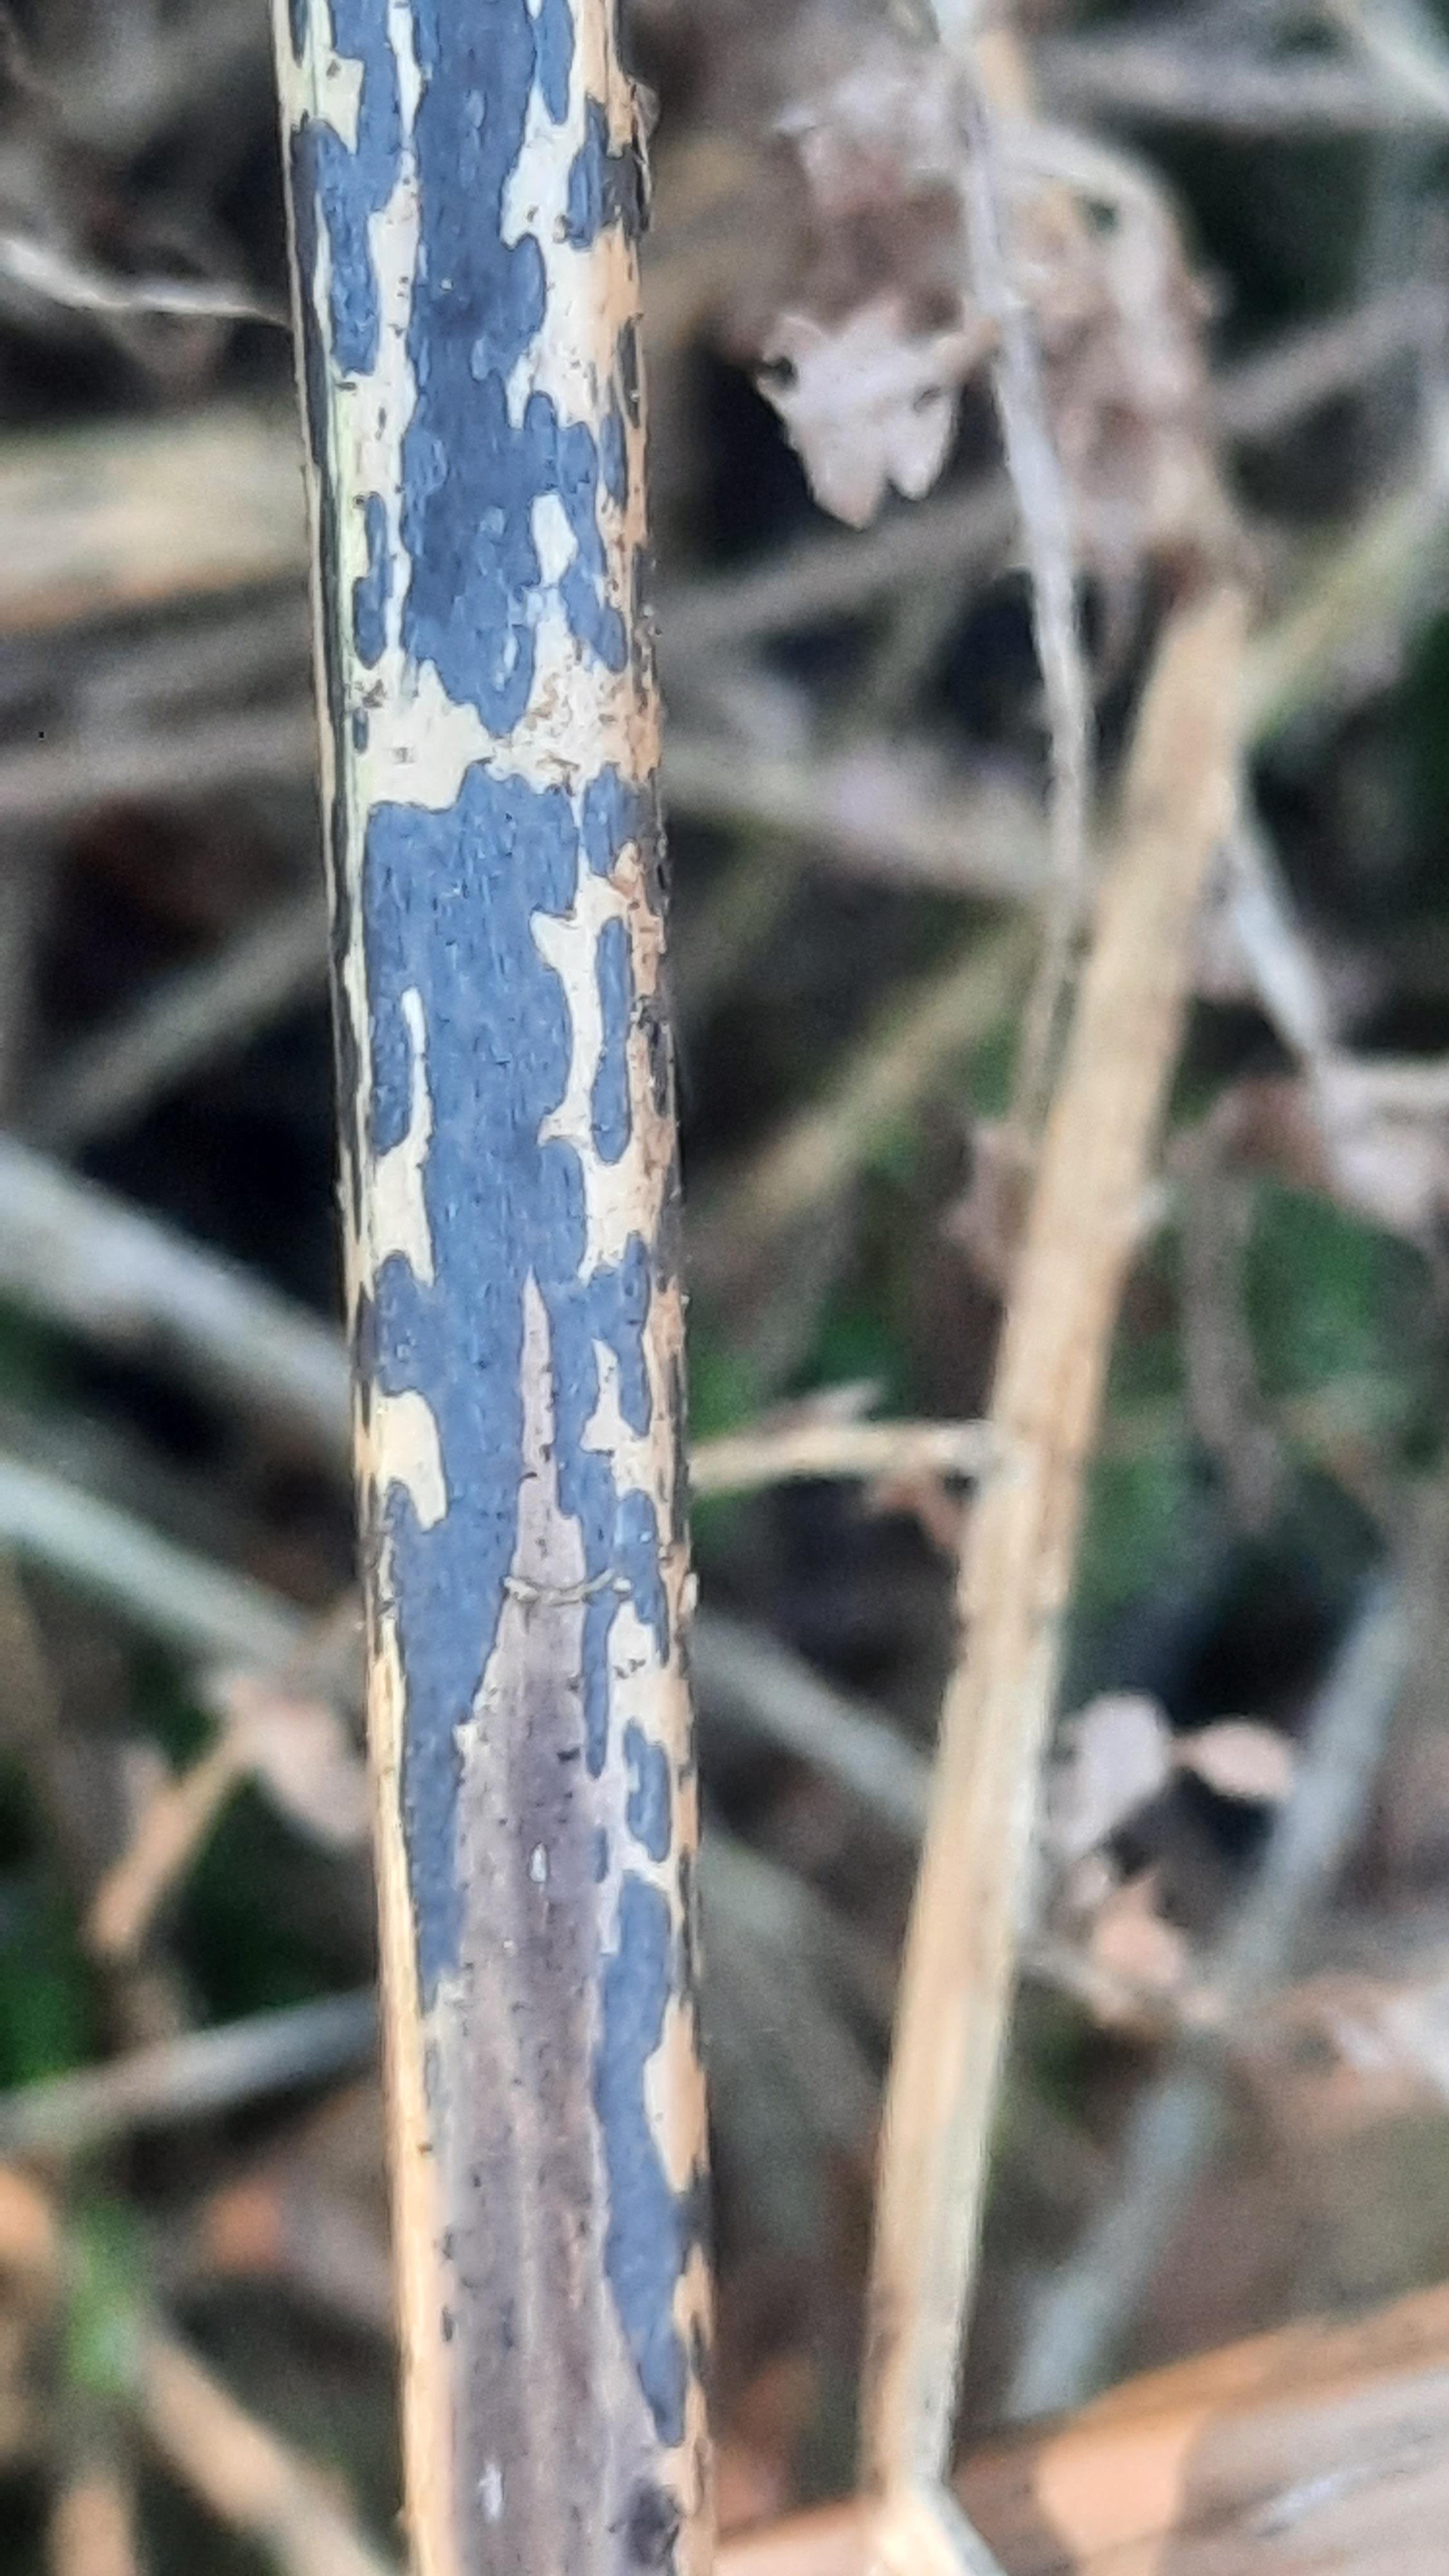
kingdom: Fungi
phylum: Ascomycota
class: Dothideomycetes
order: Pleosporales
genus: Rhopographus
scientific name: Rhopographus filicinus
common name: Bracken map
